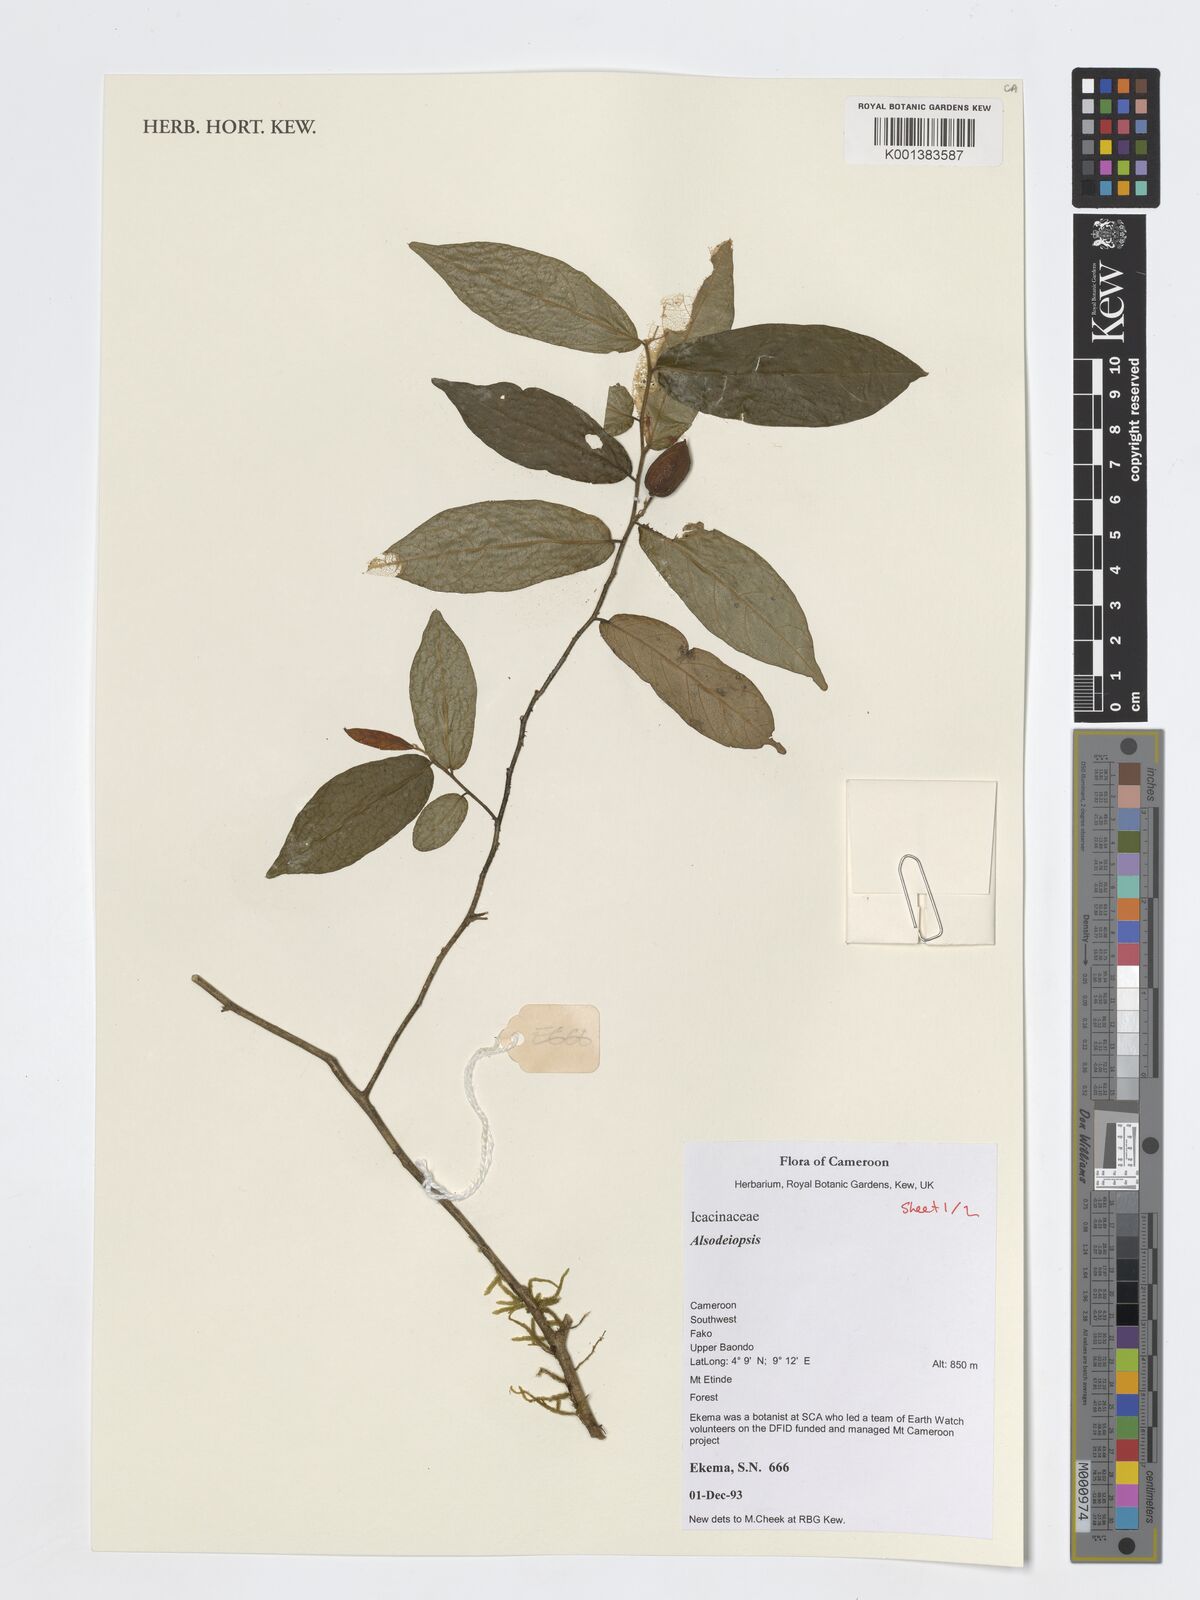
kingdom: Plantae
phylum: Tracheophyta
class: Magnoliopsida
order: Icacinales
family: Icacinaceae
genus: Alsodeiopsis
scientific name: Alsodeiopsis
